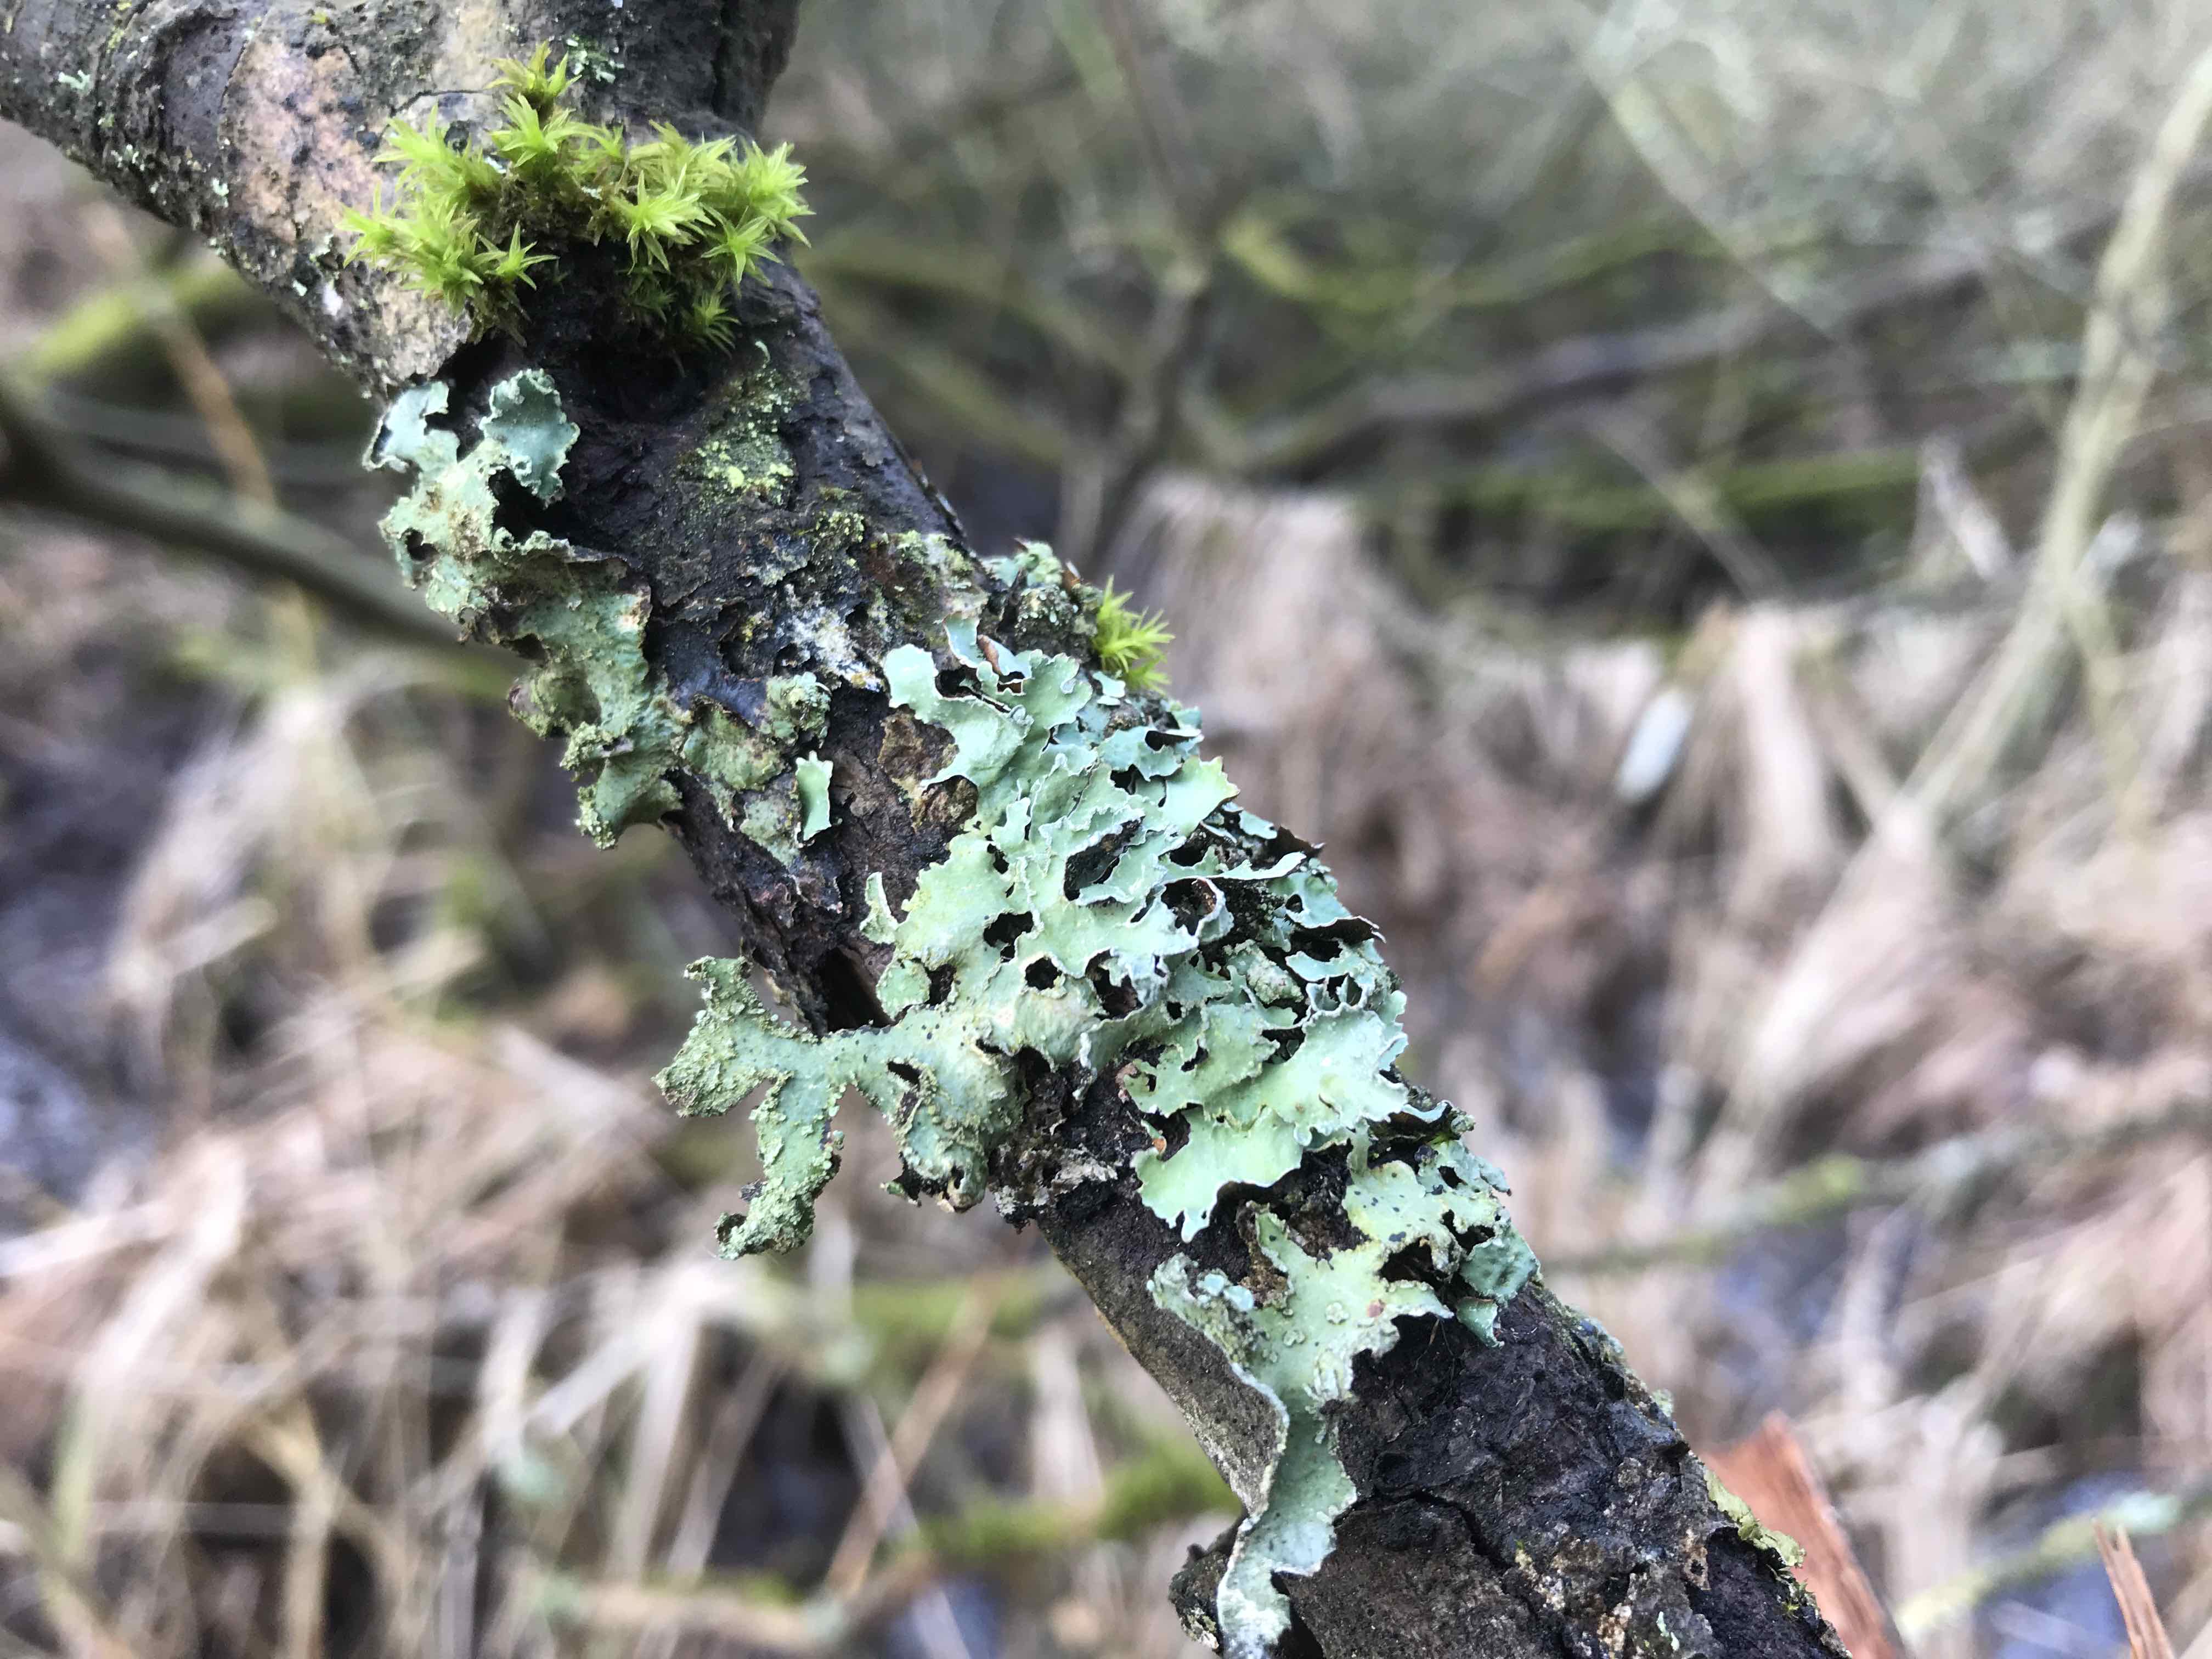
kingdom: Fungi
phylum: Ascomycota
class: Lecanoromycetes
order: Lecanorales
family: Parmeliaceae
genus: Parmelia
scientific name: Parmelia sulcata
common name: rynket skållav
